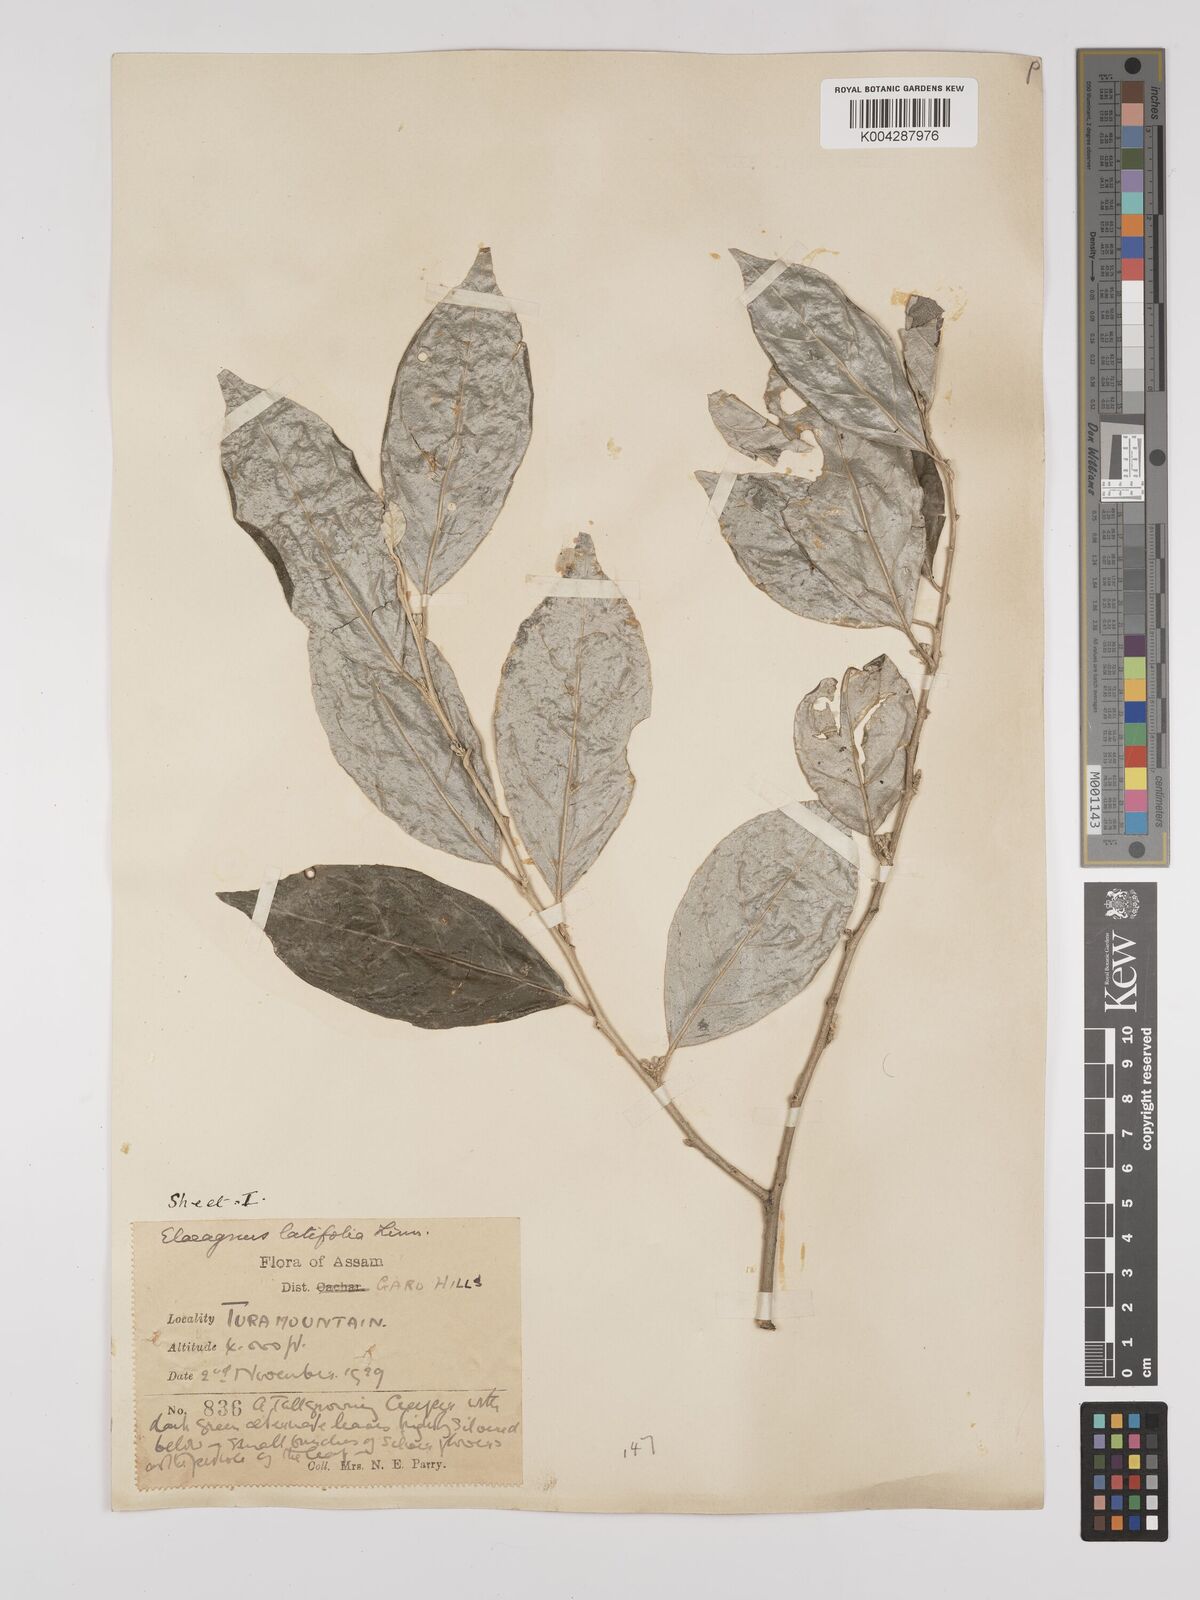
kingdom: Plantae
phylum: Tracheophyta
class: Magnoliopsida
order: Rosales
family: Elaeagnaceae
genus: Elaeagnus
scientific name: Elaeagnus latifolia
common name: Oleaster
